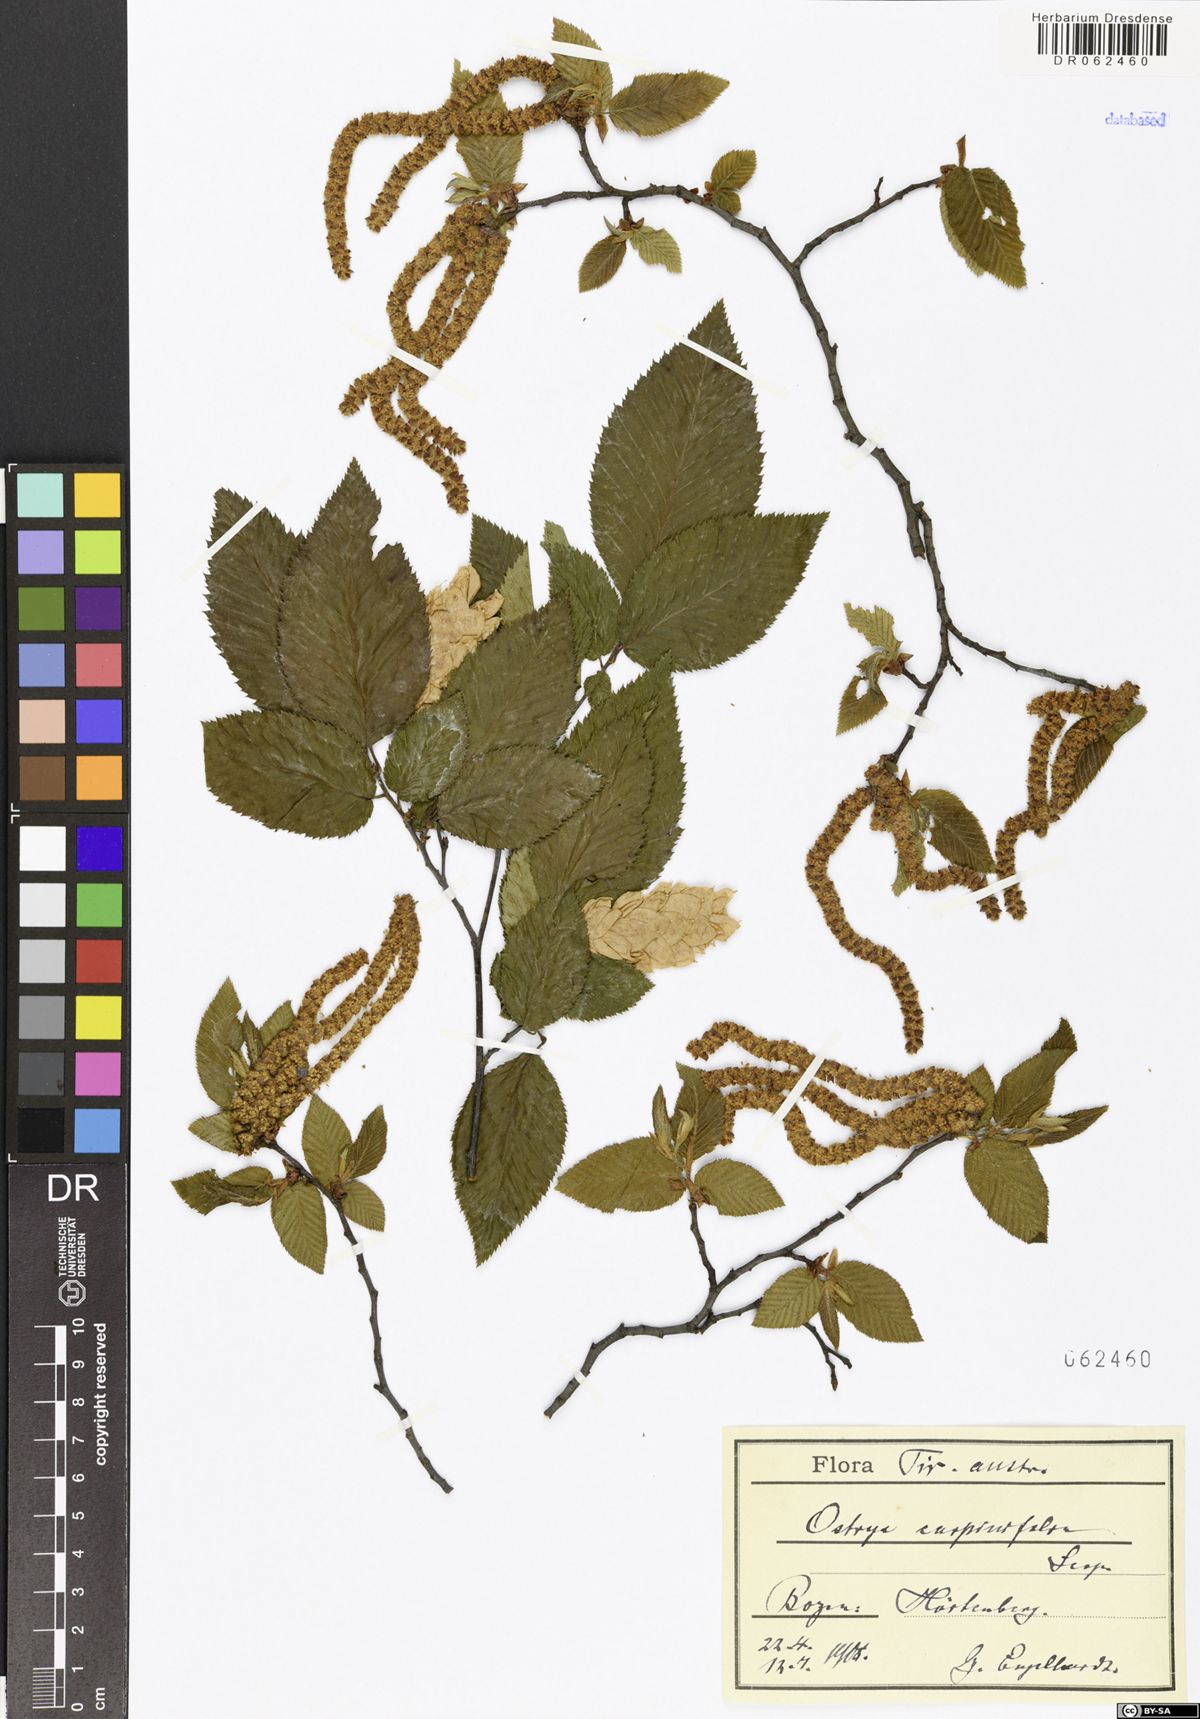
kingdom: Plantae
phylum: Tracheophyta
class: Magnoliopsida
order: Fagales
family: Betulaceae
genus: Ostrya
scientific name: Ostrya carpinifolia
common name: European hop-hornbeam
